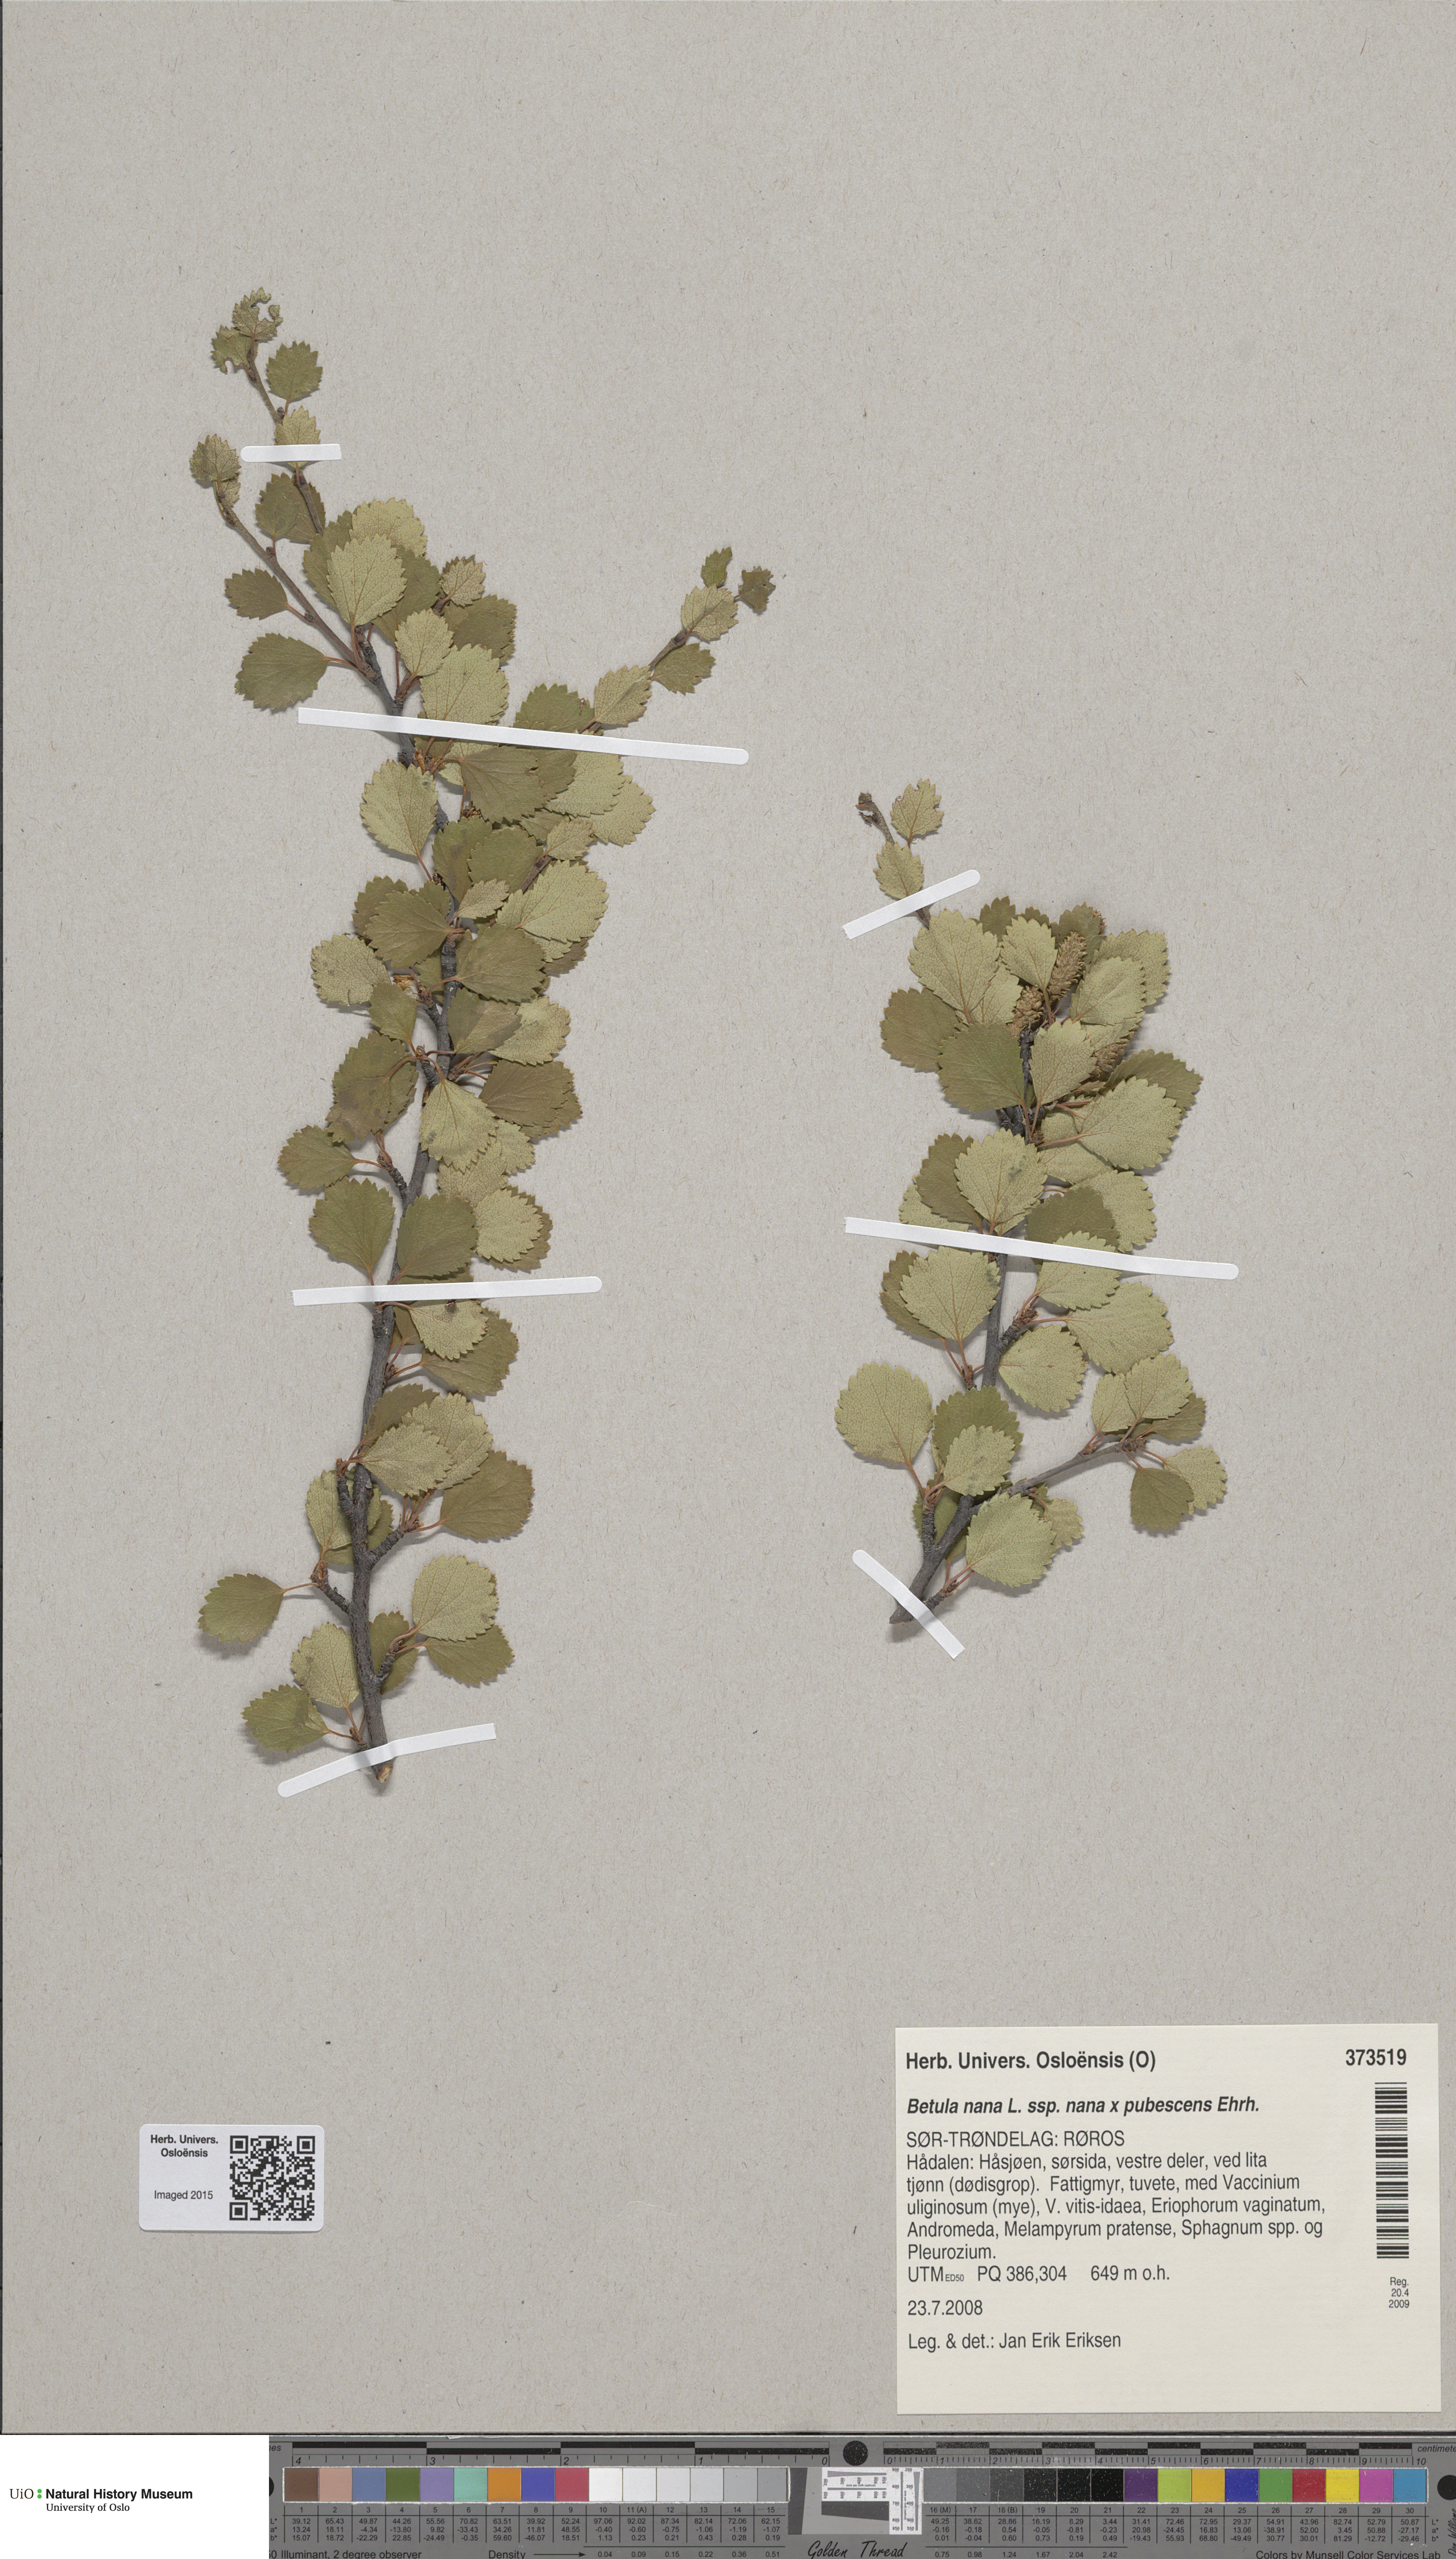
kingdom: Plantae
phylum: Tracheophyta
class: Magnoliopsida
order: Fagales
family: Betulaceae
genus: Betula
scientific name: Betula
